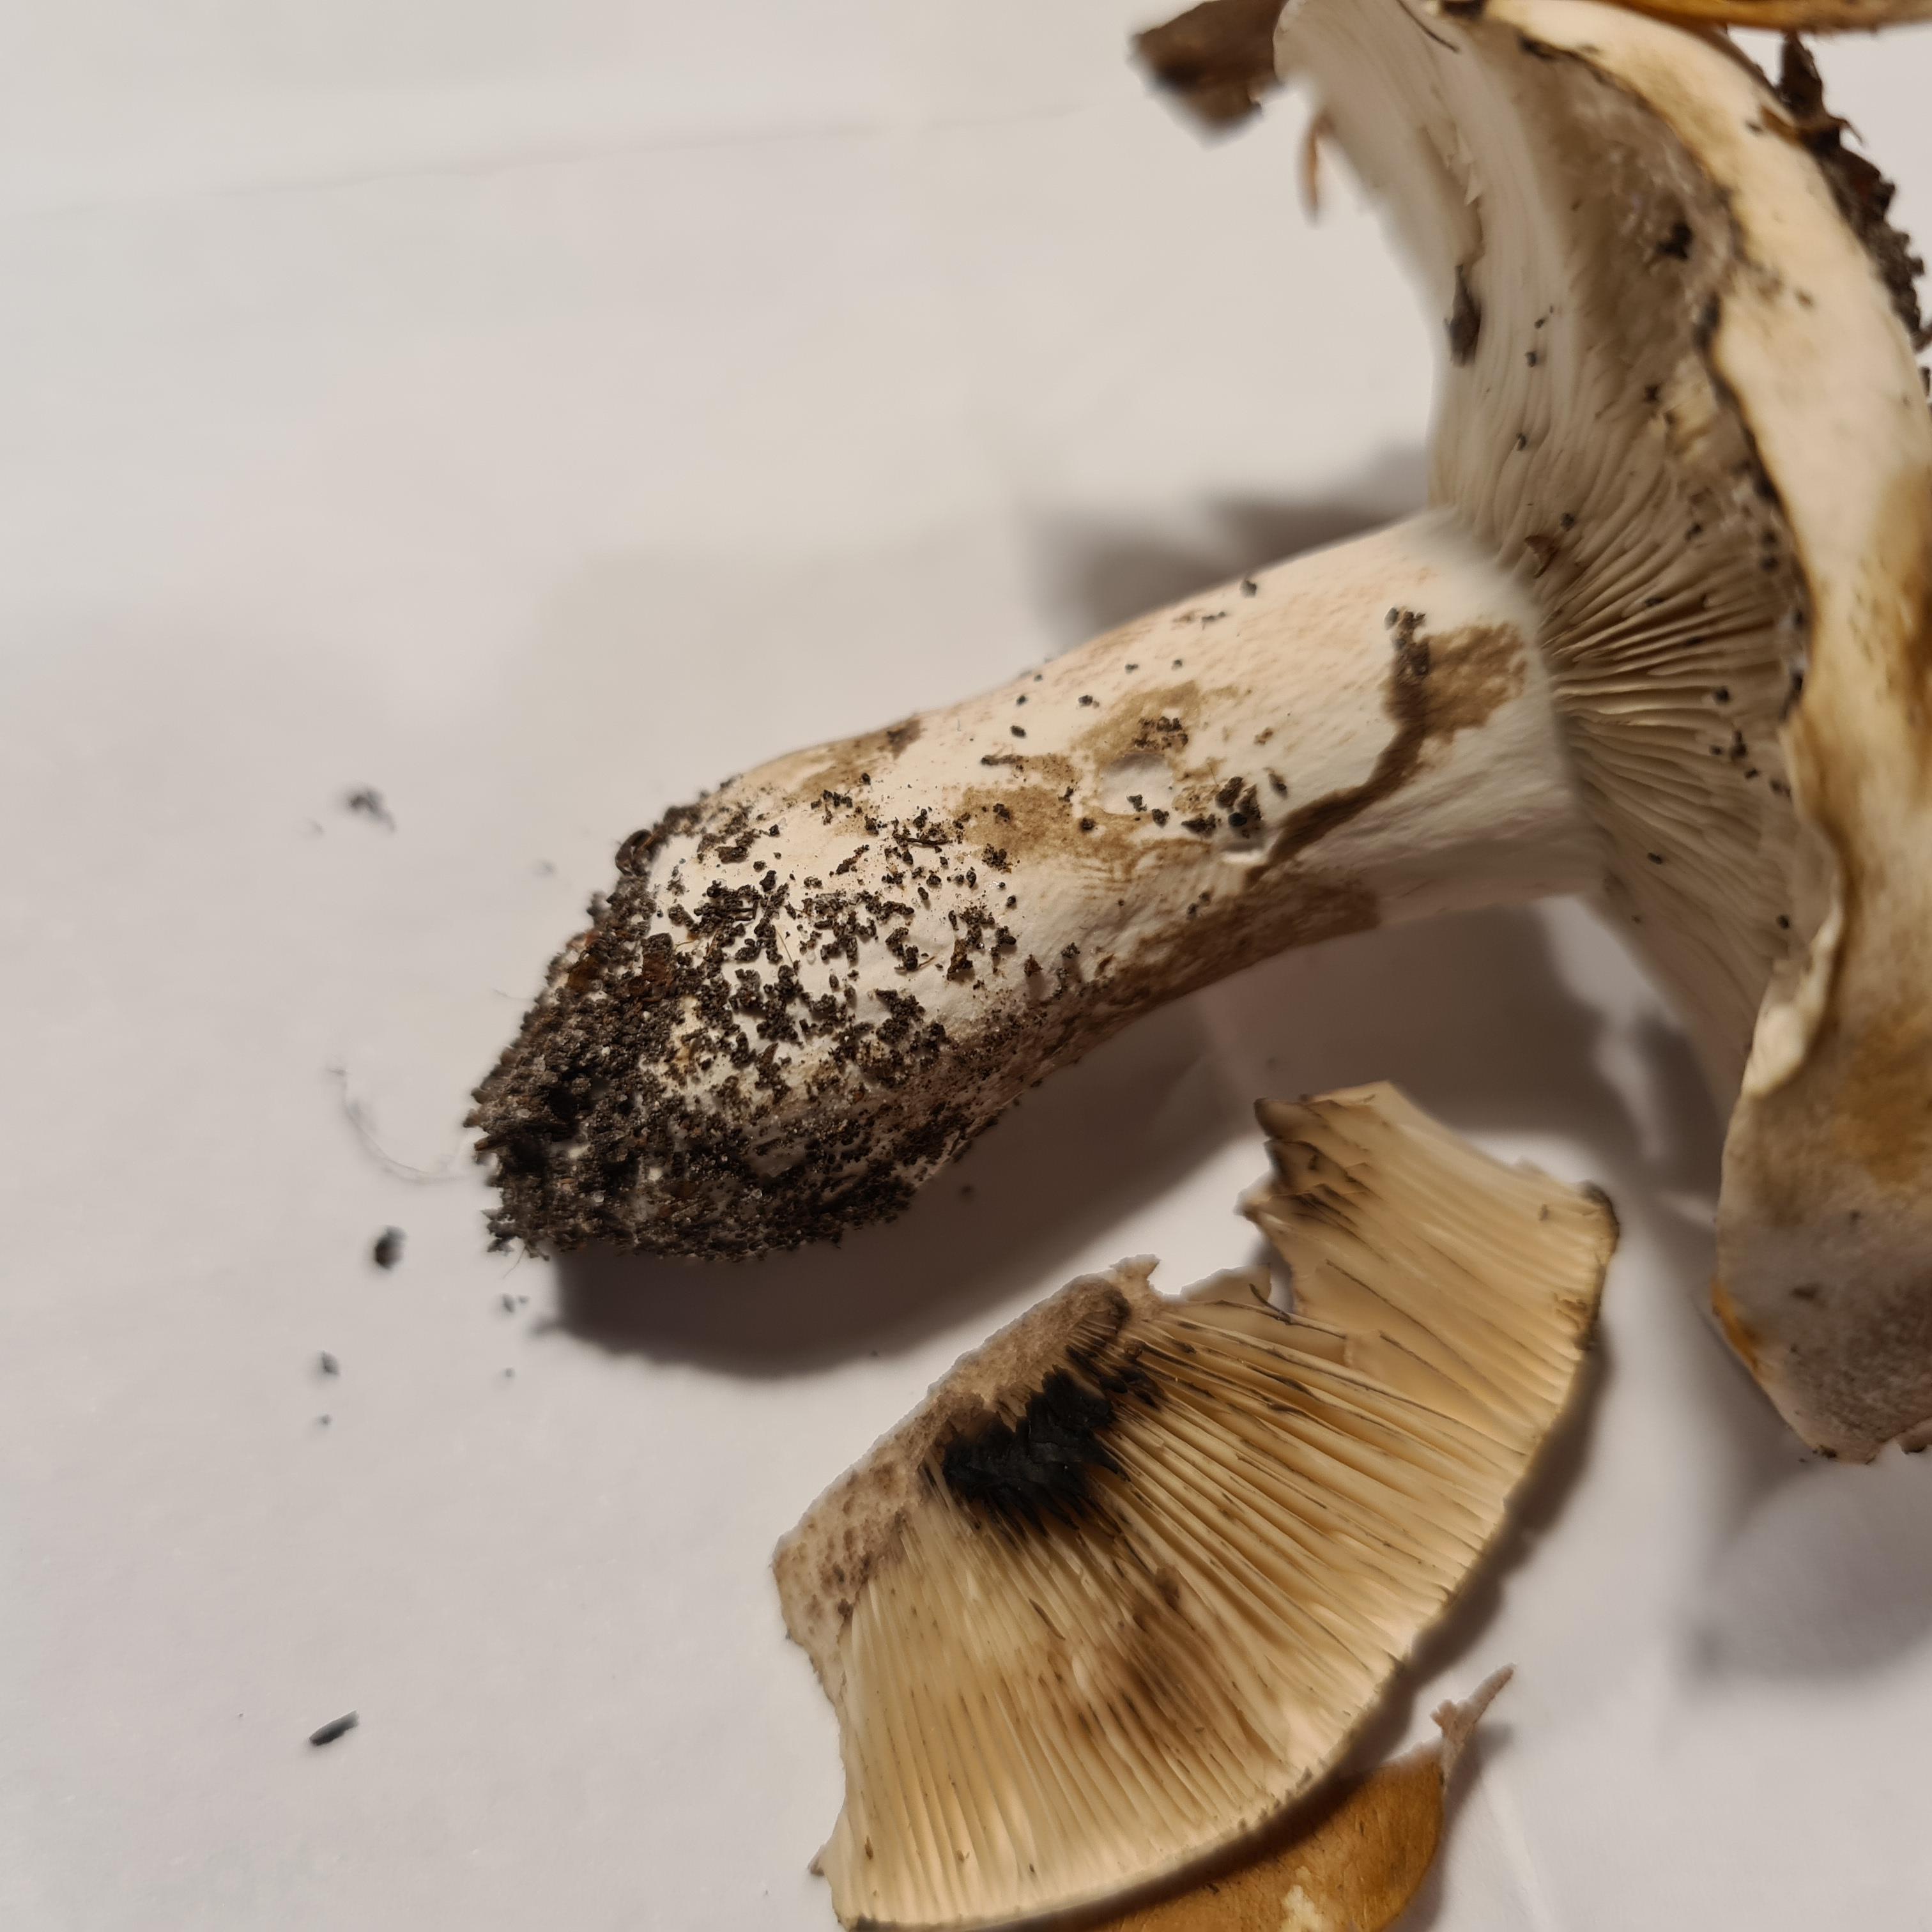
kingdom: Fungi
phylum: Basidiomycota
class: Agaricomycetes
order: Russulales
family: Russulaceae
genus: Russula
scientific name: Russula densifolia
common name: tætbladet skørhat
